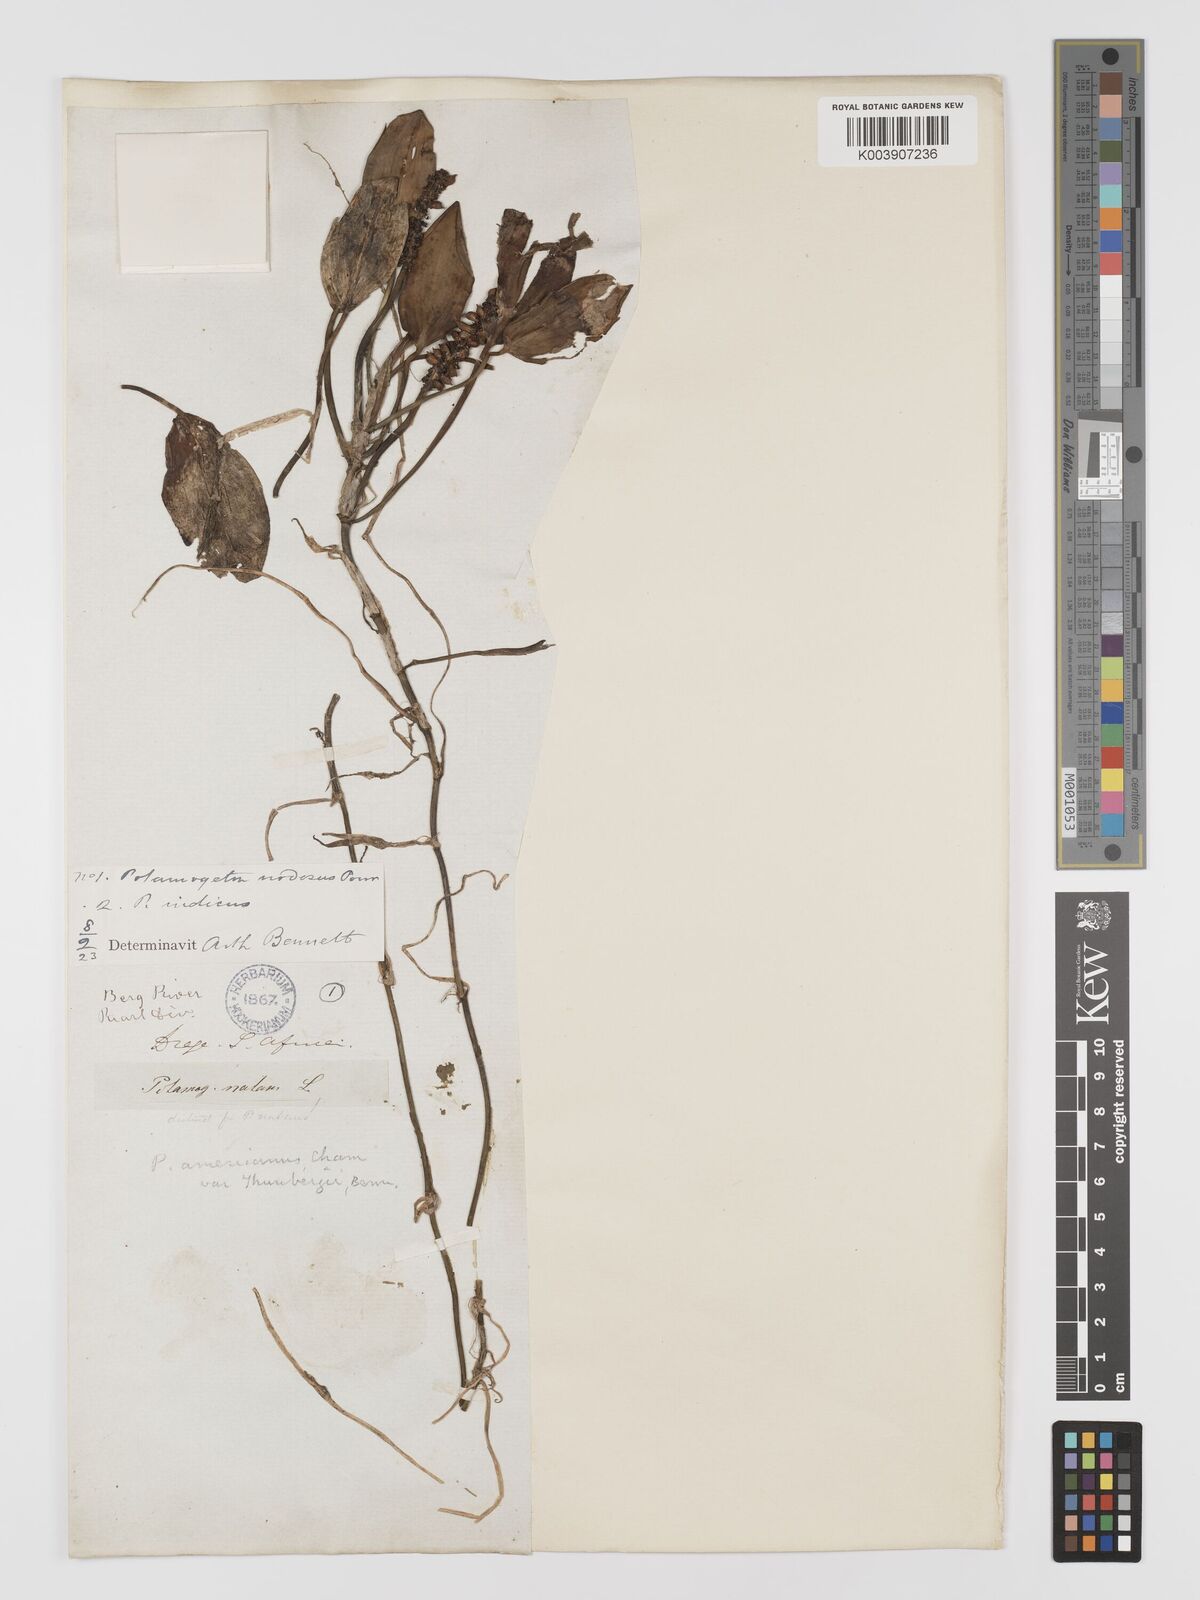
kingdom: Plantae
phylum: Tracheophyta
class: Liliopsida
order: Alismatales
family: Potamogetonaceae
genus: Potamogeton
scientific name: Potamogeton nodosus
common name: Loddon pondweed
